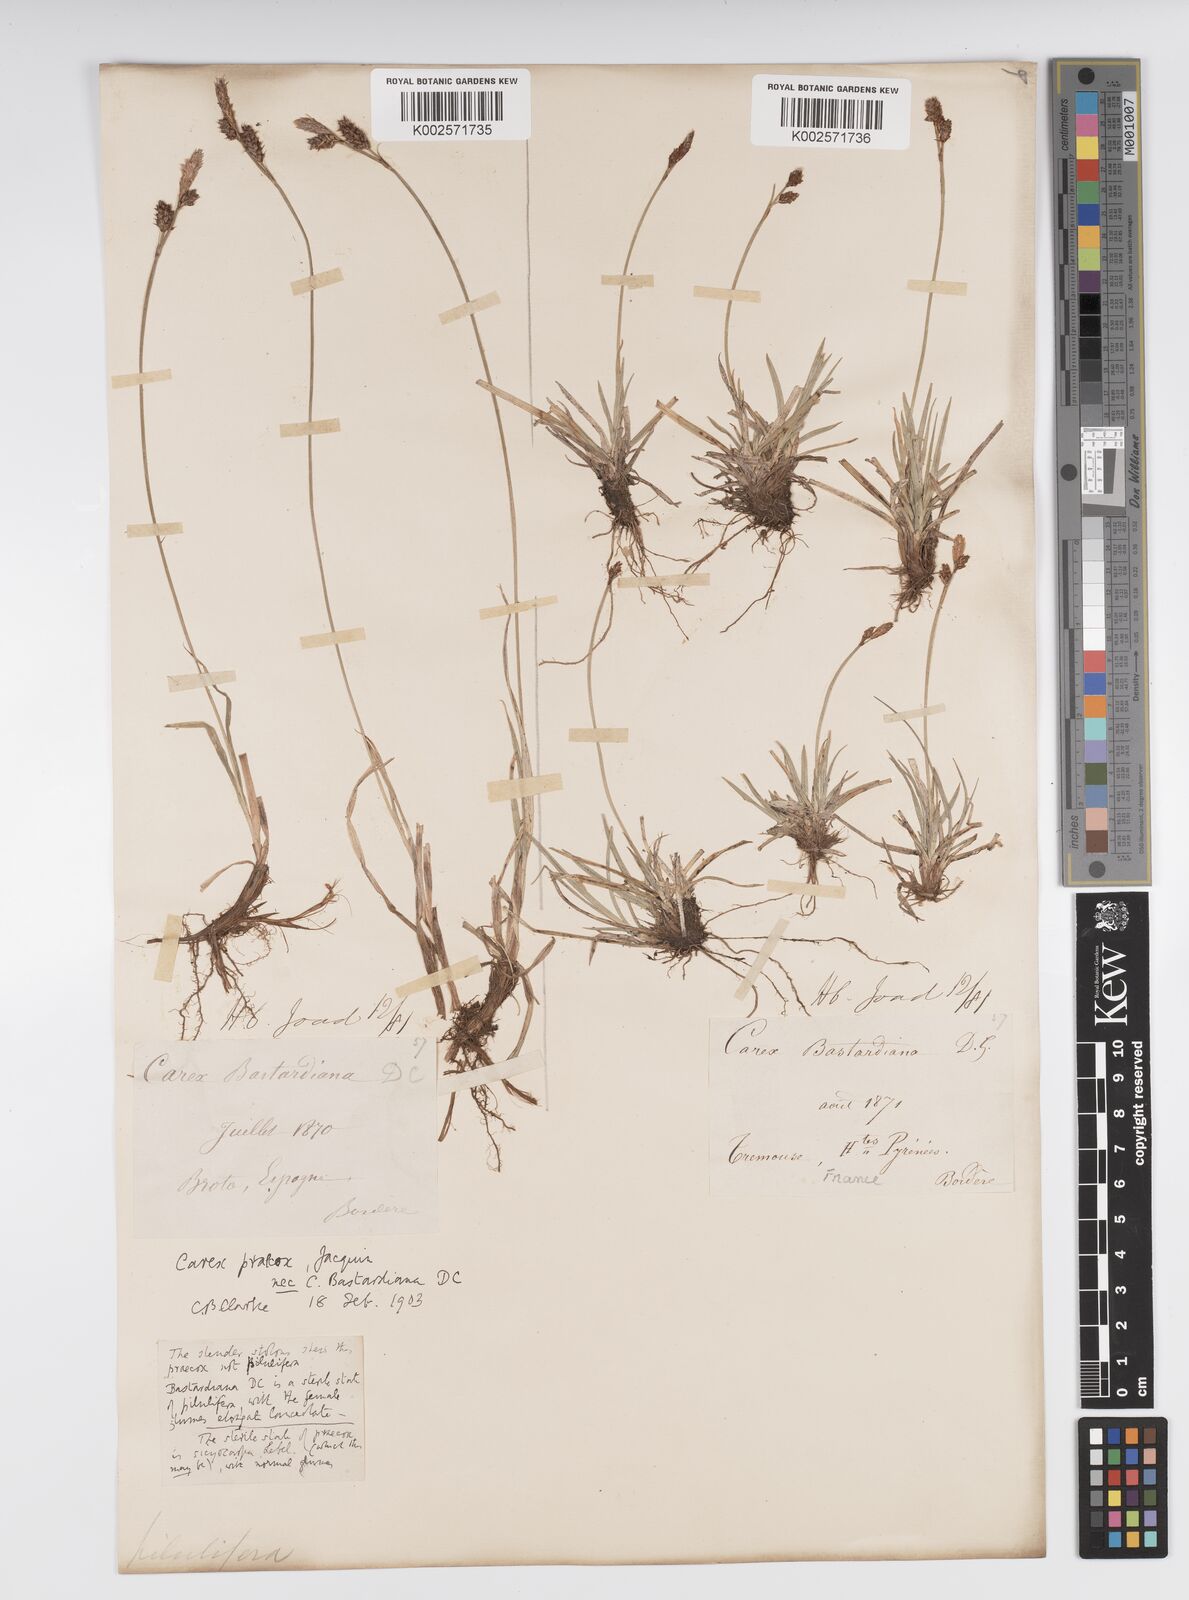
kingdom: Plantae
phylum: Tracheophyta
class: Liliopsida
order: Poales
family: Cyperaceae
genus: Carex
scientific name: Carex caryophyllea
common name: Spring sedge
